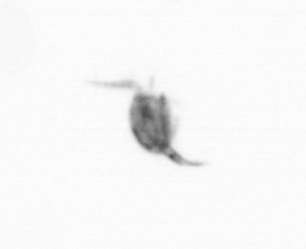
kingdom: Animalia
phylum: Arthropoda
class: Copepoda
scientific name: Copepoda
